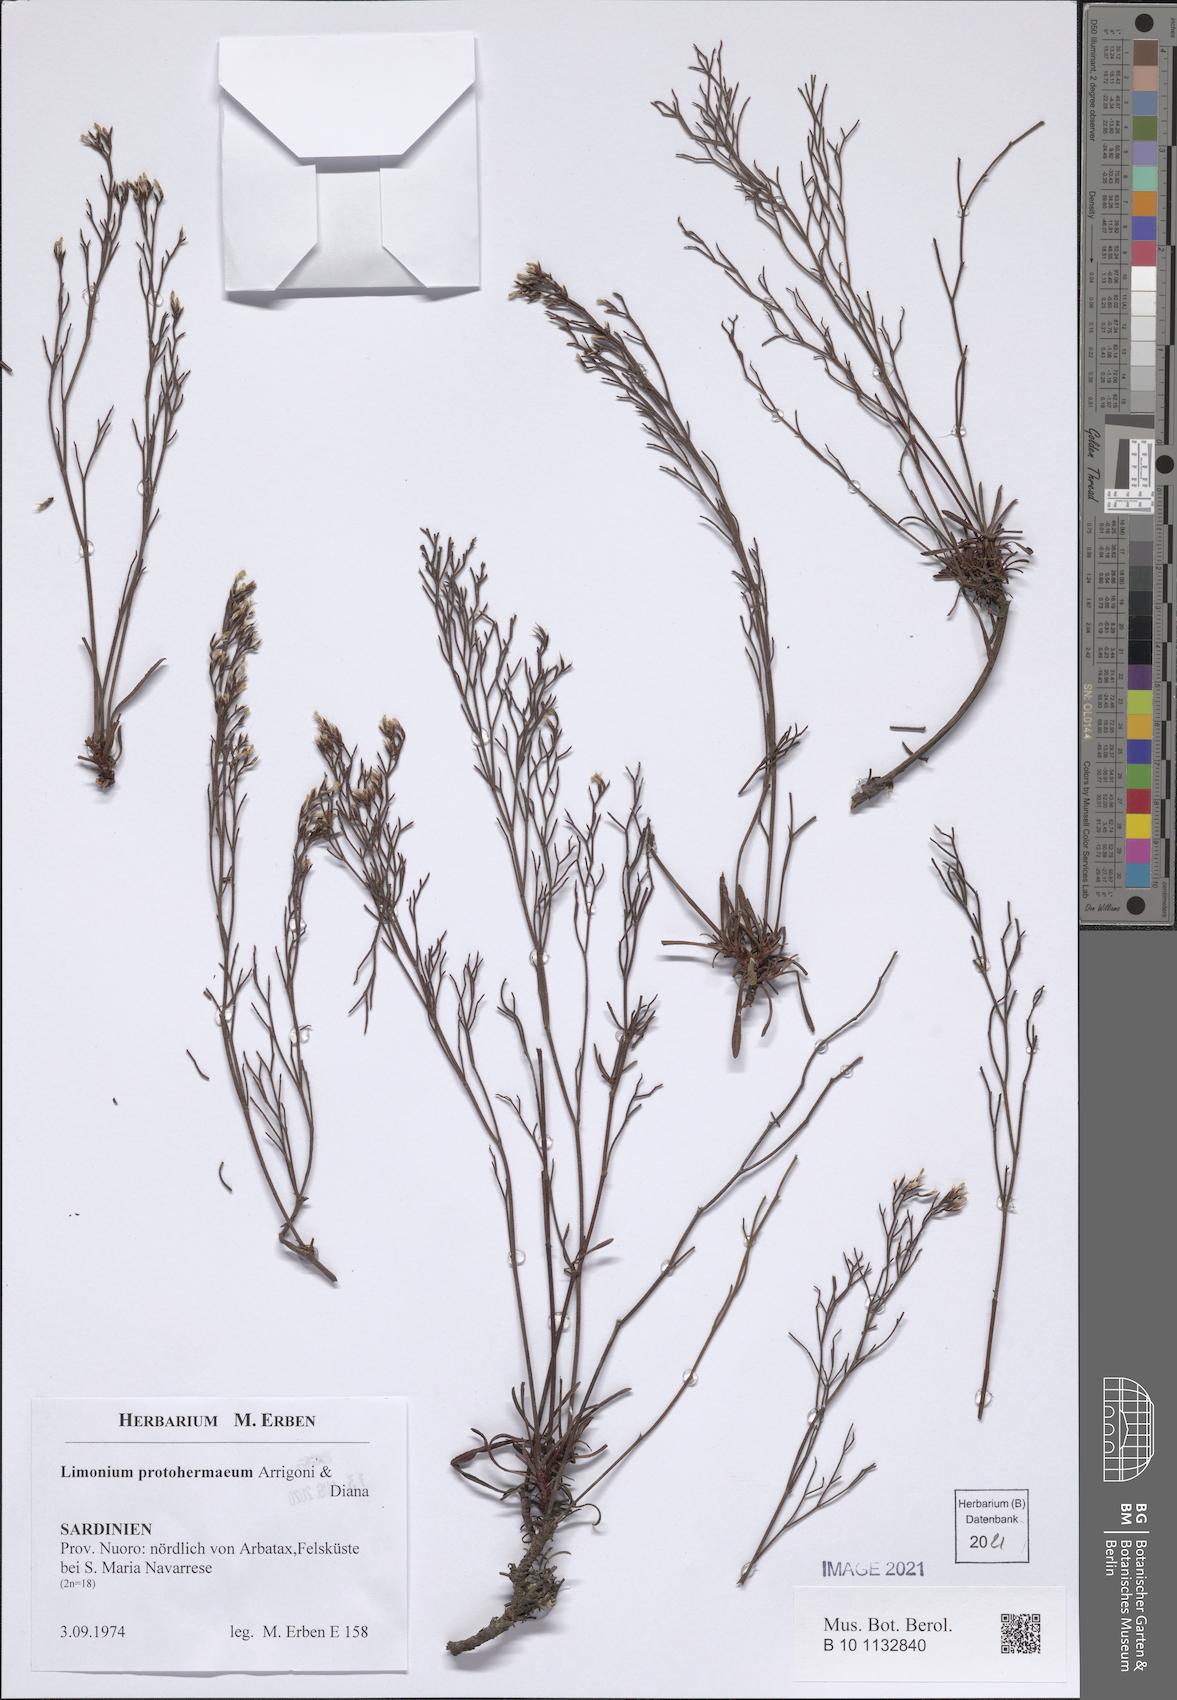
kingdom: Plantae
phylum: Tracheophyta
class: Magnoliopsida
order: Caryophyllales
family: Plumbaginaceae
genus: Limonium
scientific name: Limonium protohermaeum
